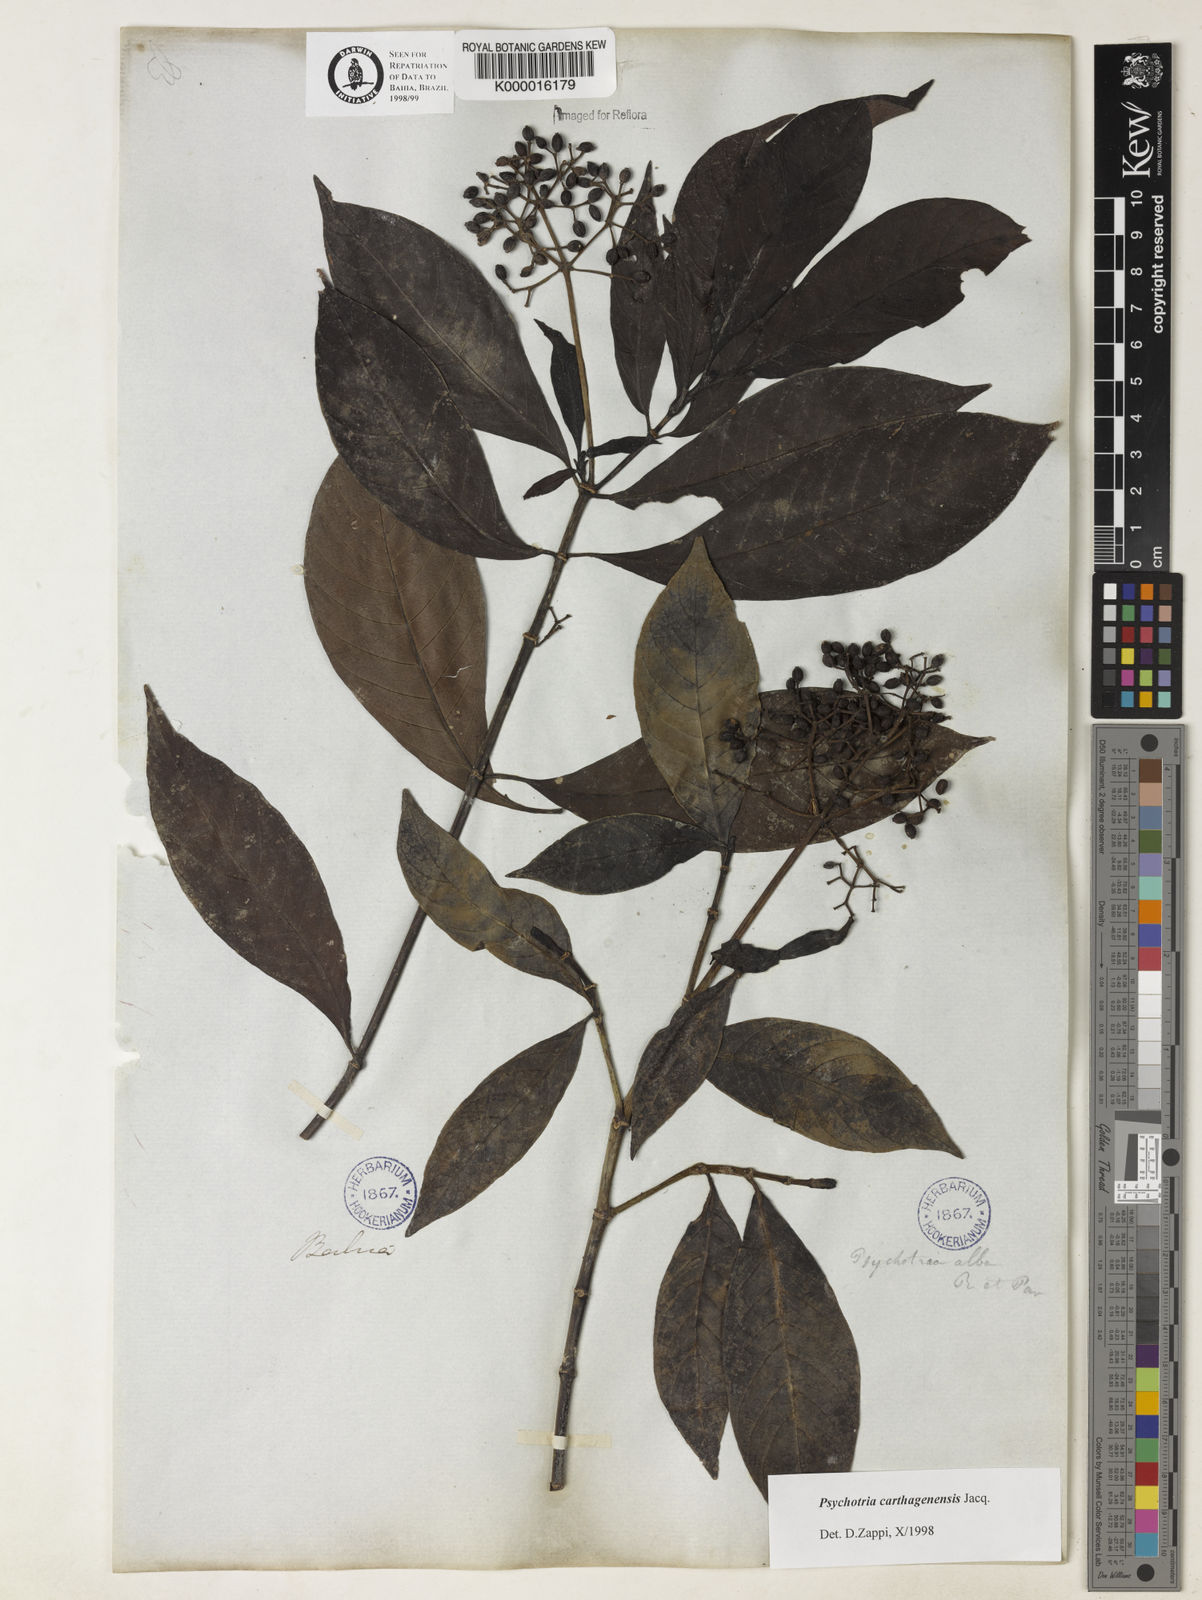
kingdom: Plantae
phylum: Tracheophyta
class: Magnoliopsida
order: Gentianales
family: Rubiaceae
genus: Psychotria
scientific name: Psychotria carthagenensis
